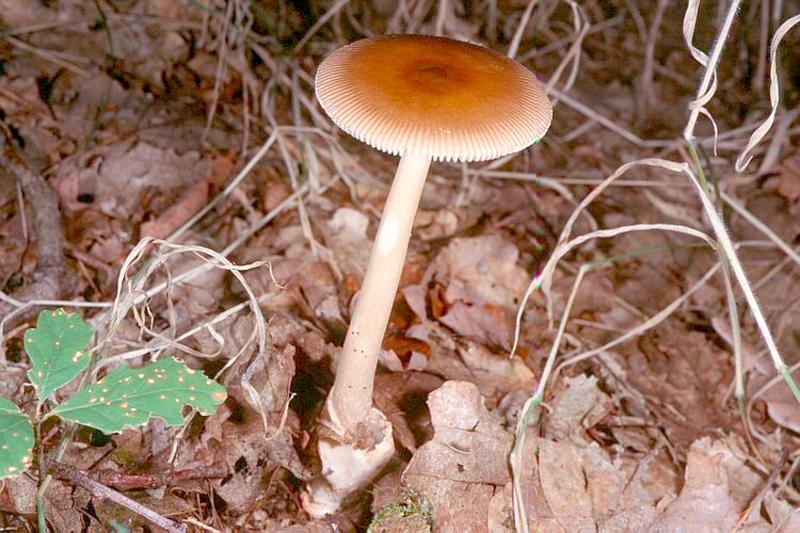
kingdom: Fungi
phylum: Basidiomycota
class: Agaricomycetes
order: Agaricales
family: Amanitaceae
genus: Amanita
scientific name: Amanita fulva
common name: Tawny grisette
